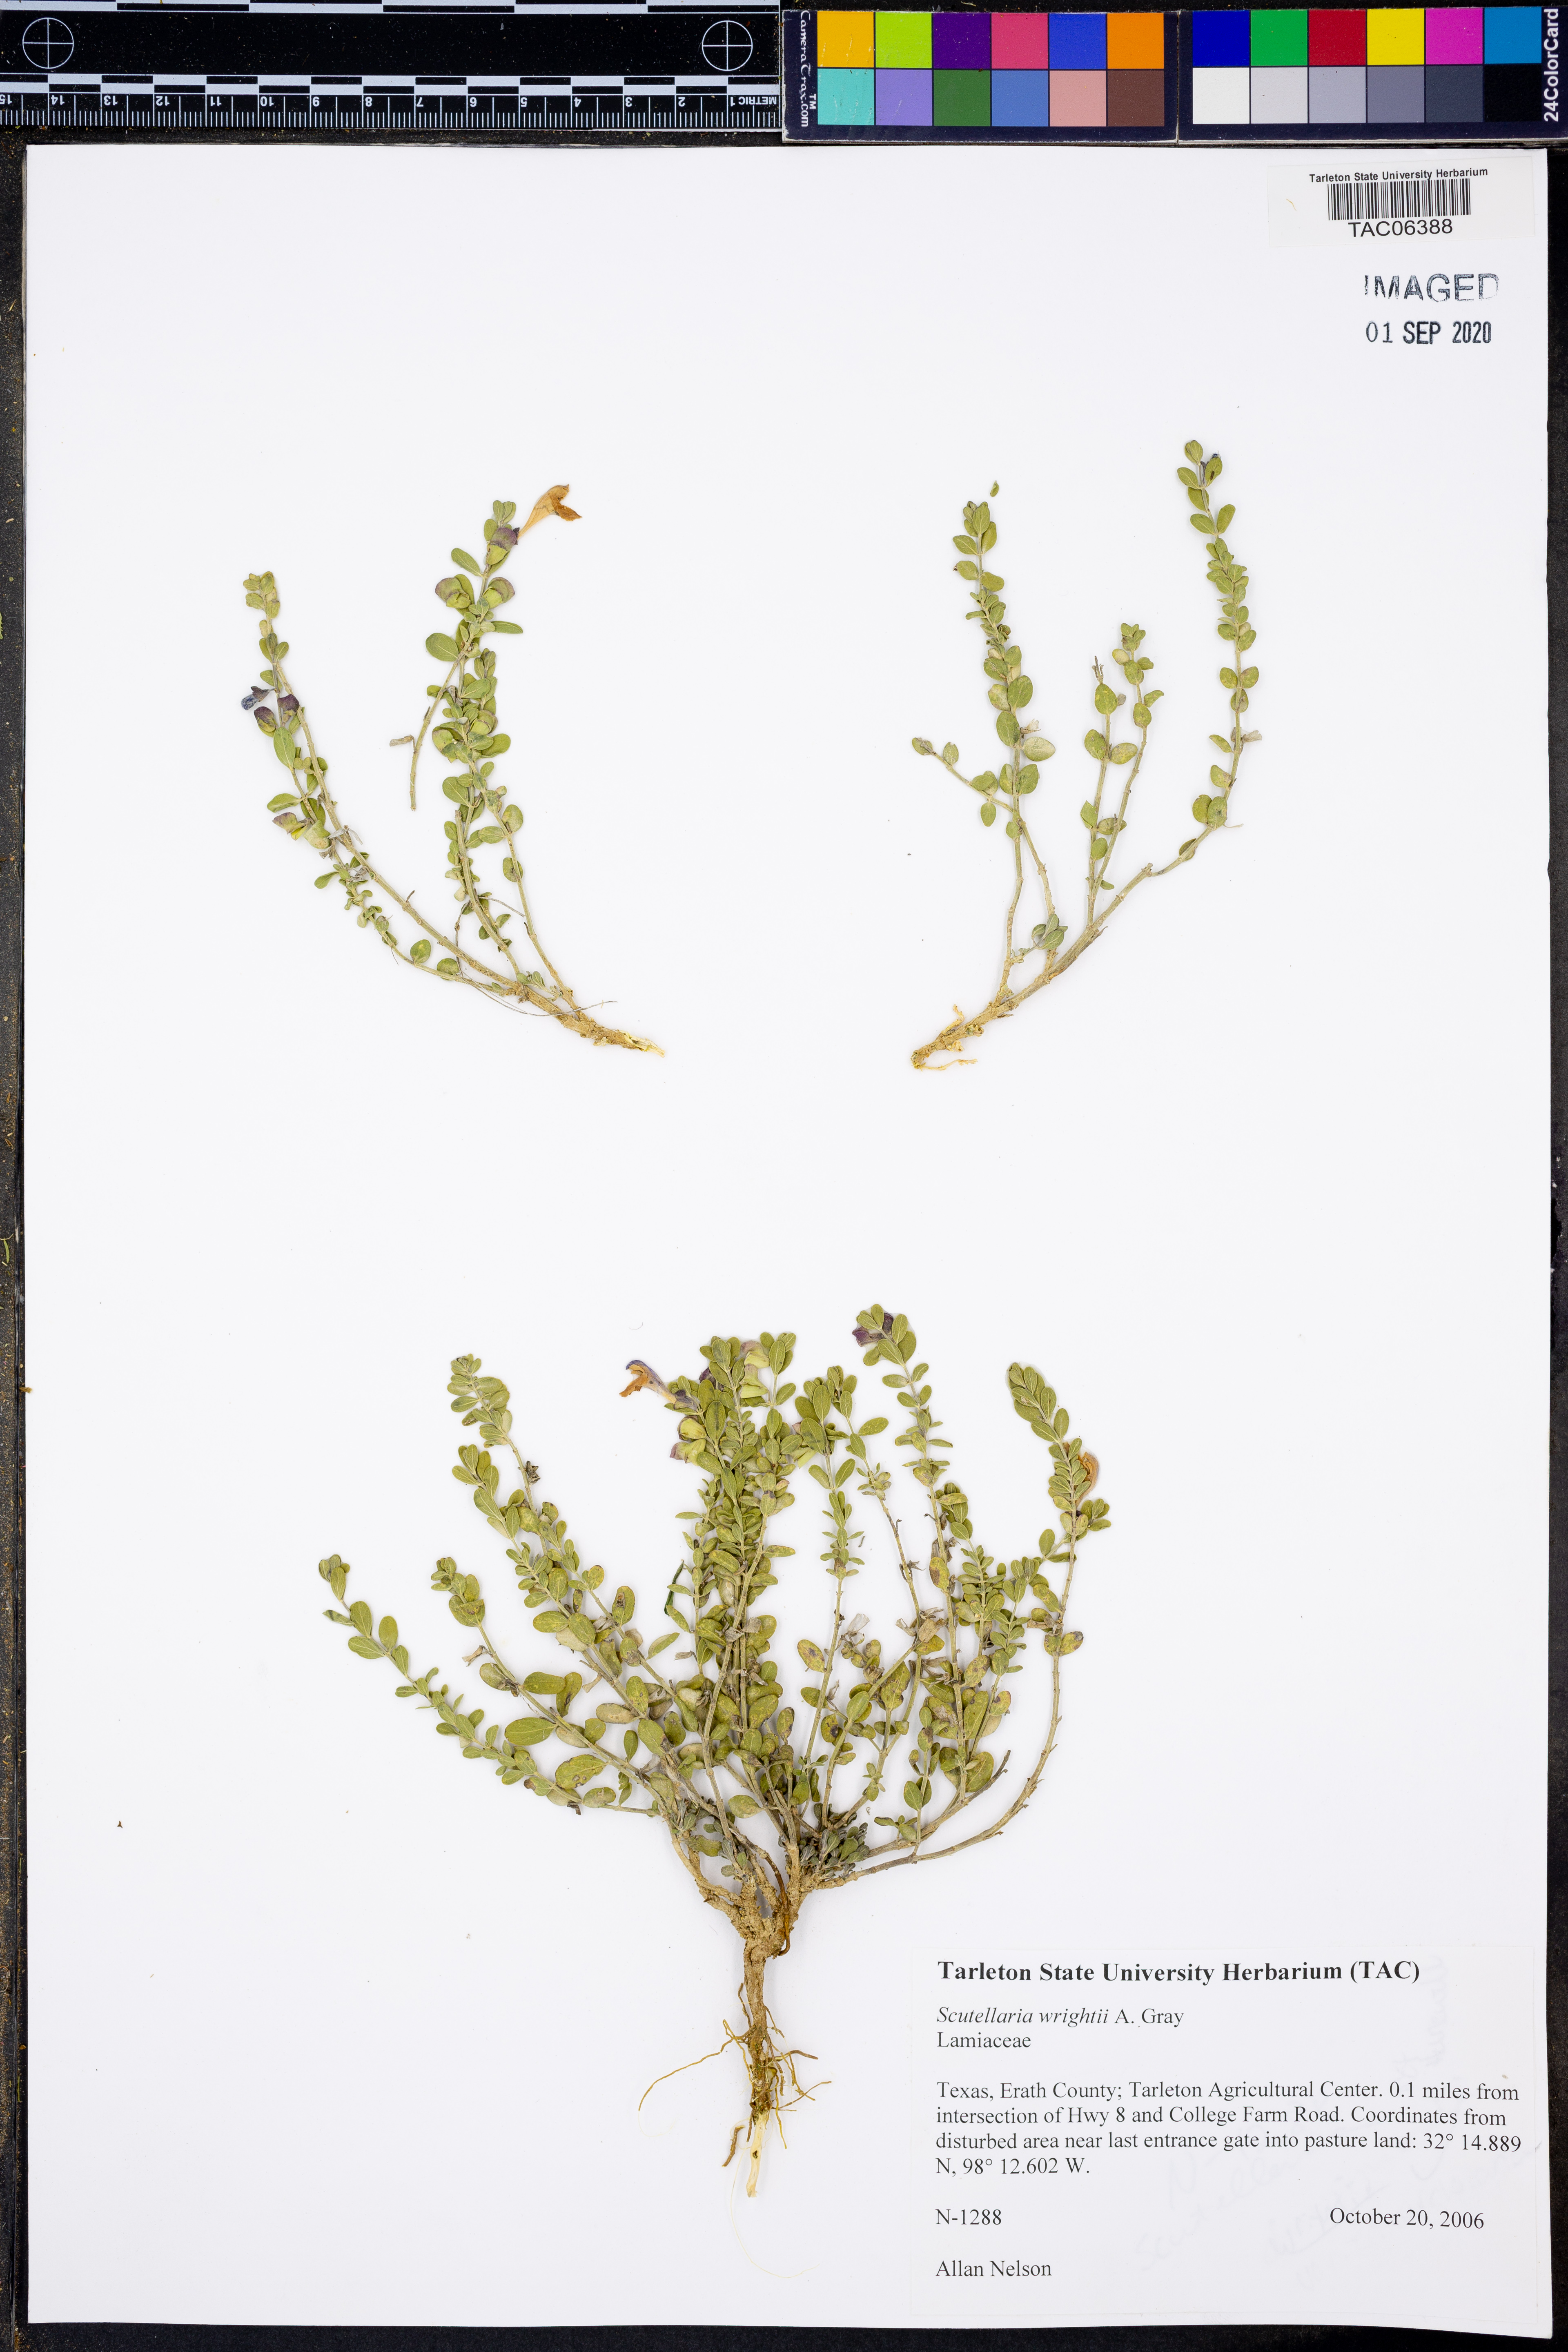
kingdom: Plantae
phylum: Tracheophyta
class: Magnoliopsida
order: Lamiales
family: Lamiaceae
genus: Scutellaria
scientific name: Scutellaria wrightii
